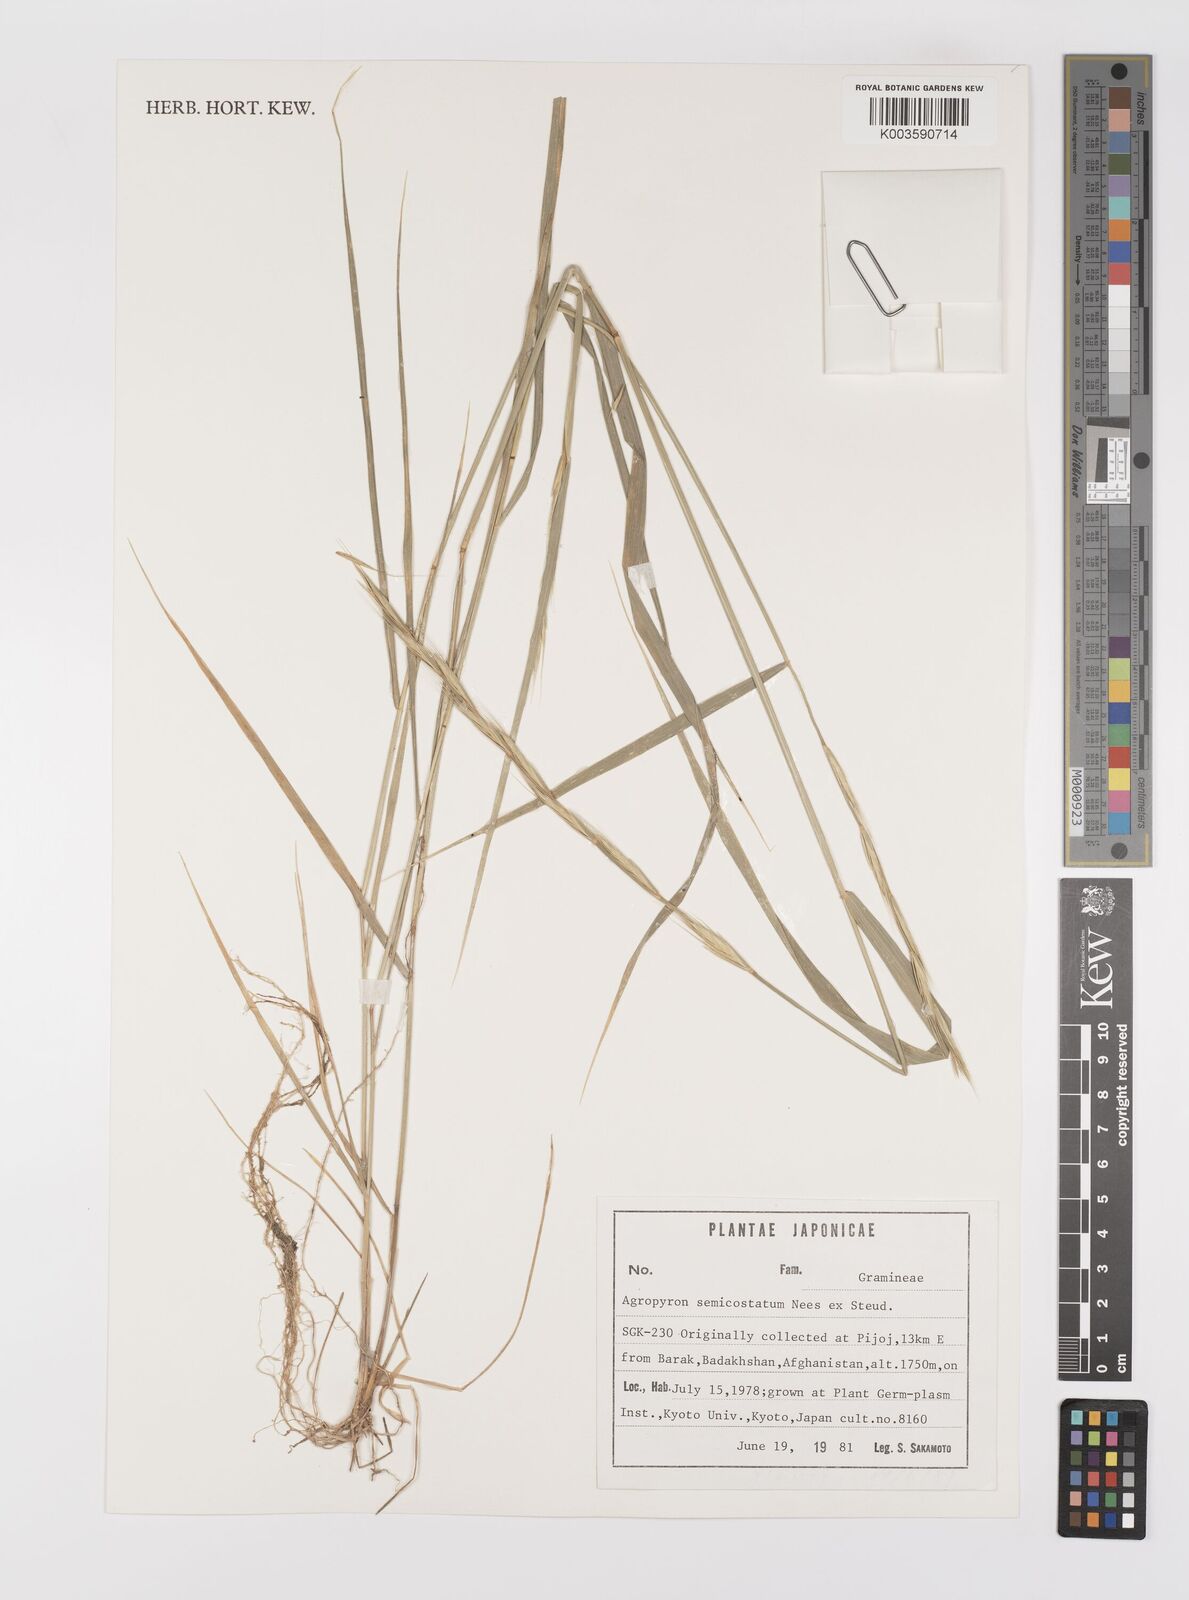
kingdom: Plantae
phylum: Tracheophyta
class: Liliopsida
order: Poales
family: Poaceae
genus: Elymus
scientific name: Elymus semicostatus
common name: Drooping wildrye
